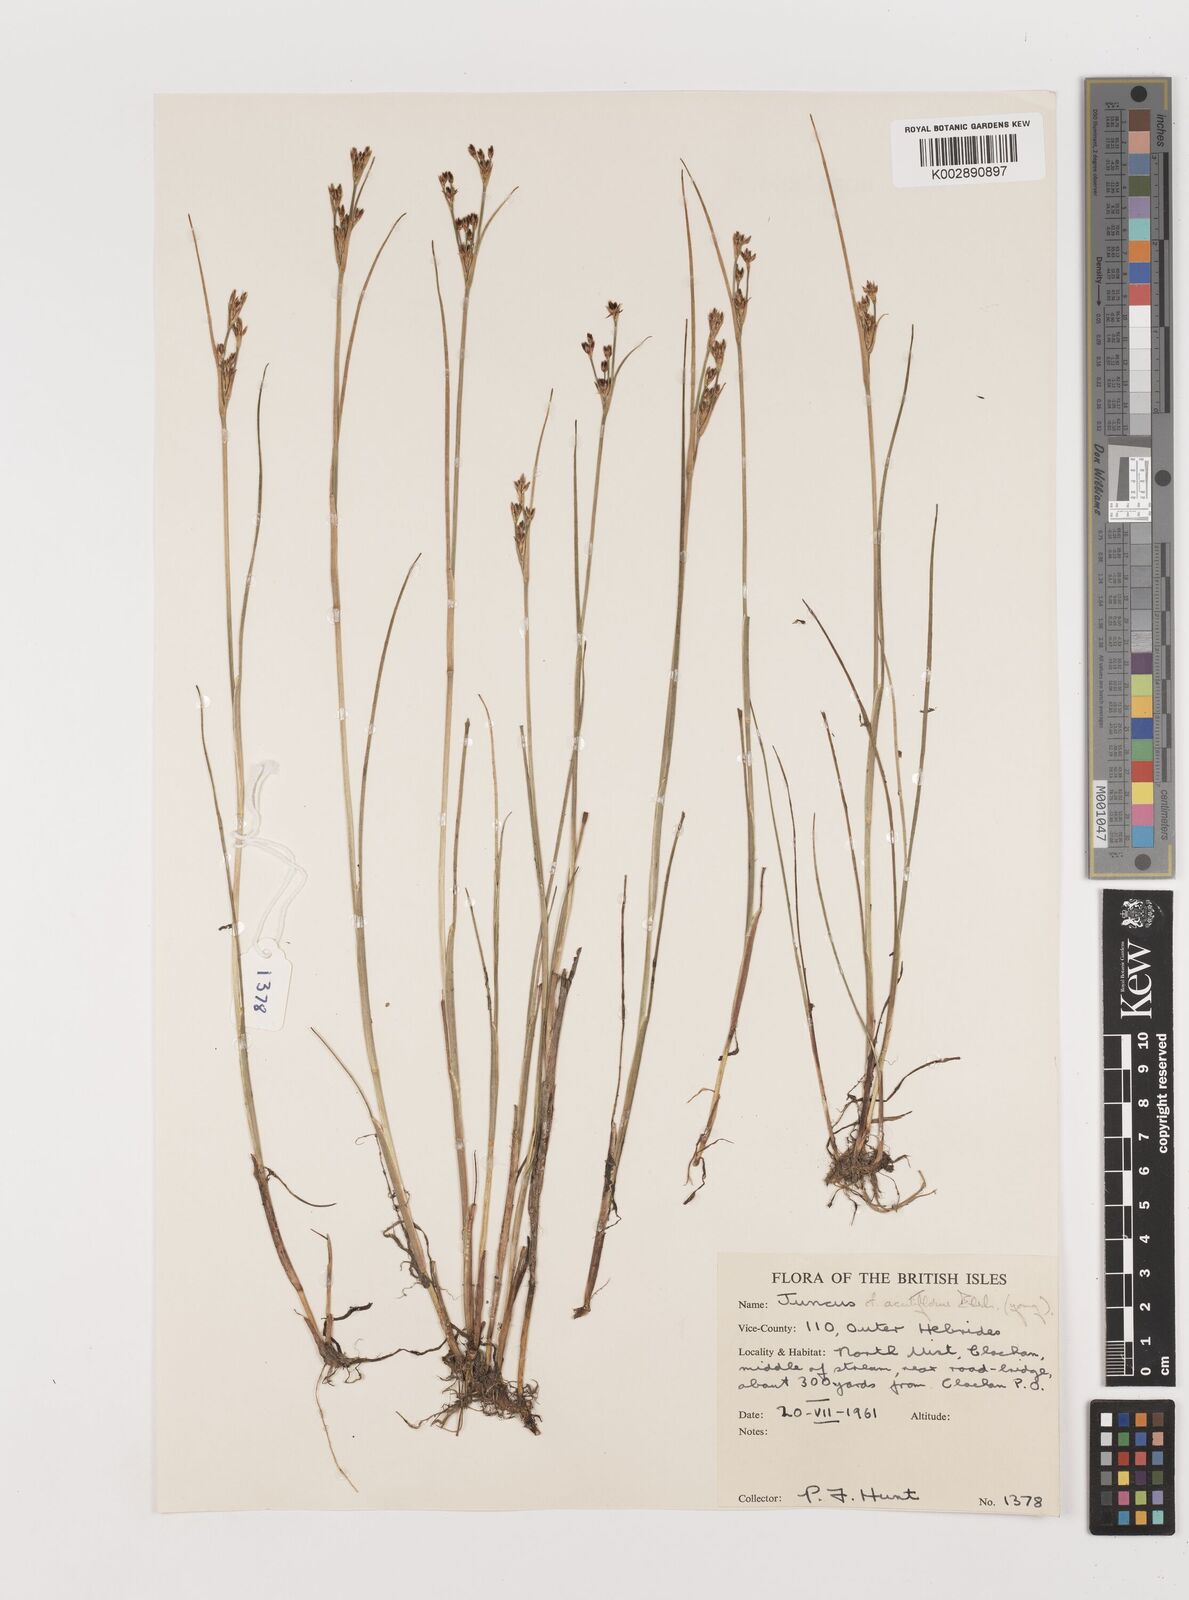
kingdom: Plantae
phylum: Tracheophyta
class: Liliopsida
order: Poales
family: Juncaceae
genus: Juncus
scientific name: Juncus
